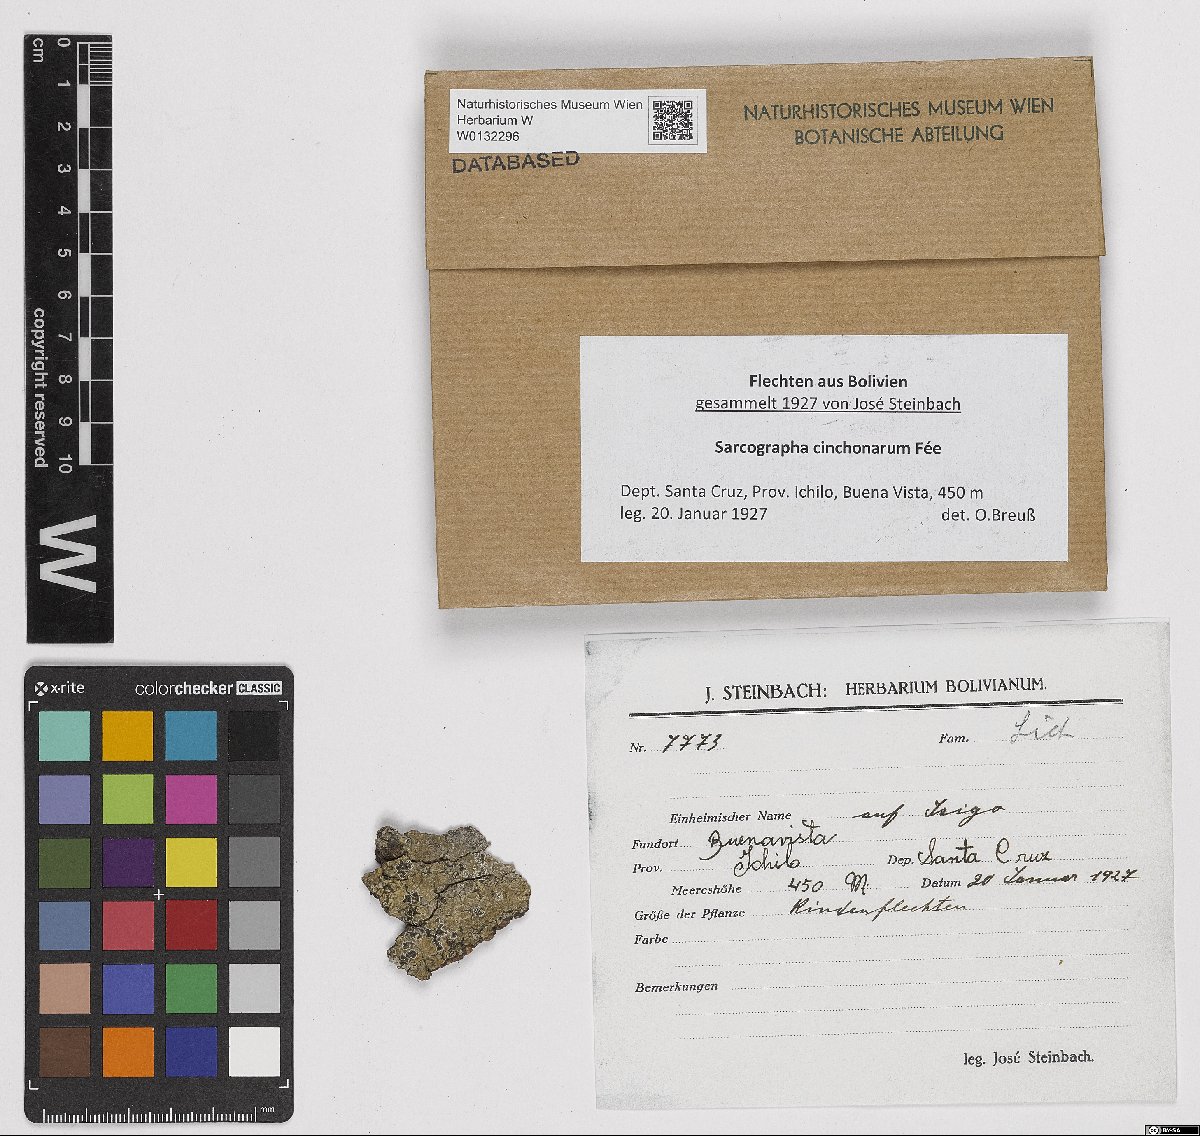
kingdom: Fungi
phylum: Ascomycota
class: Lecanoromycetes
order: Ostropales
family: Graphidaceae
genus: Sarcographa
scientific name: Sarcographa cinchonarum
